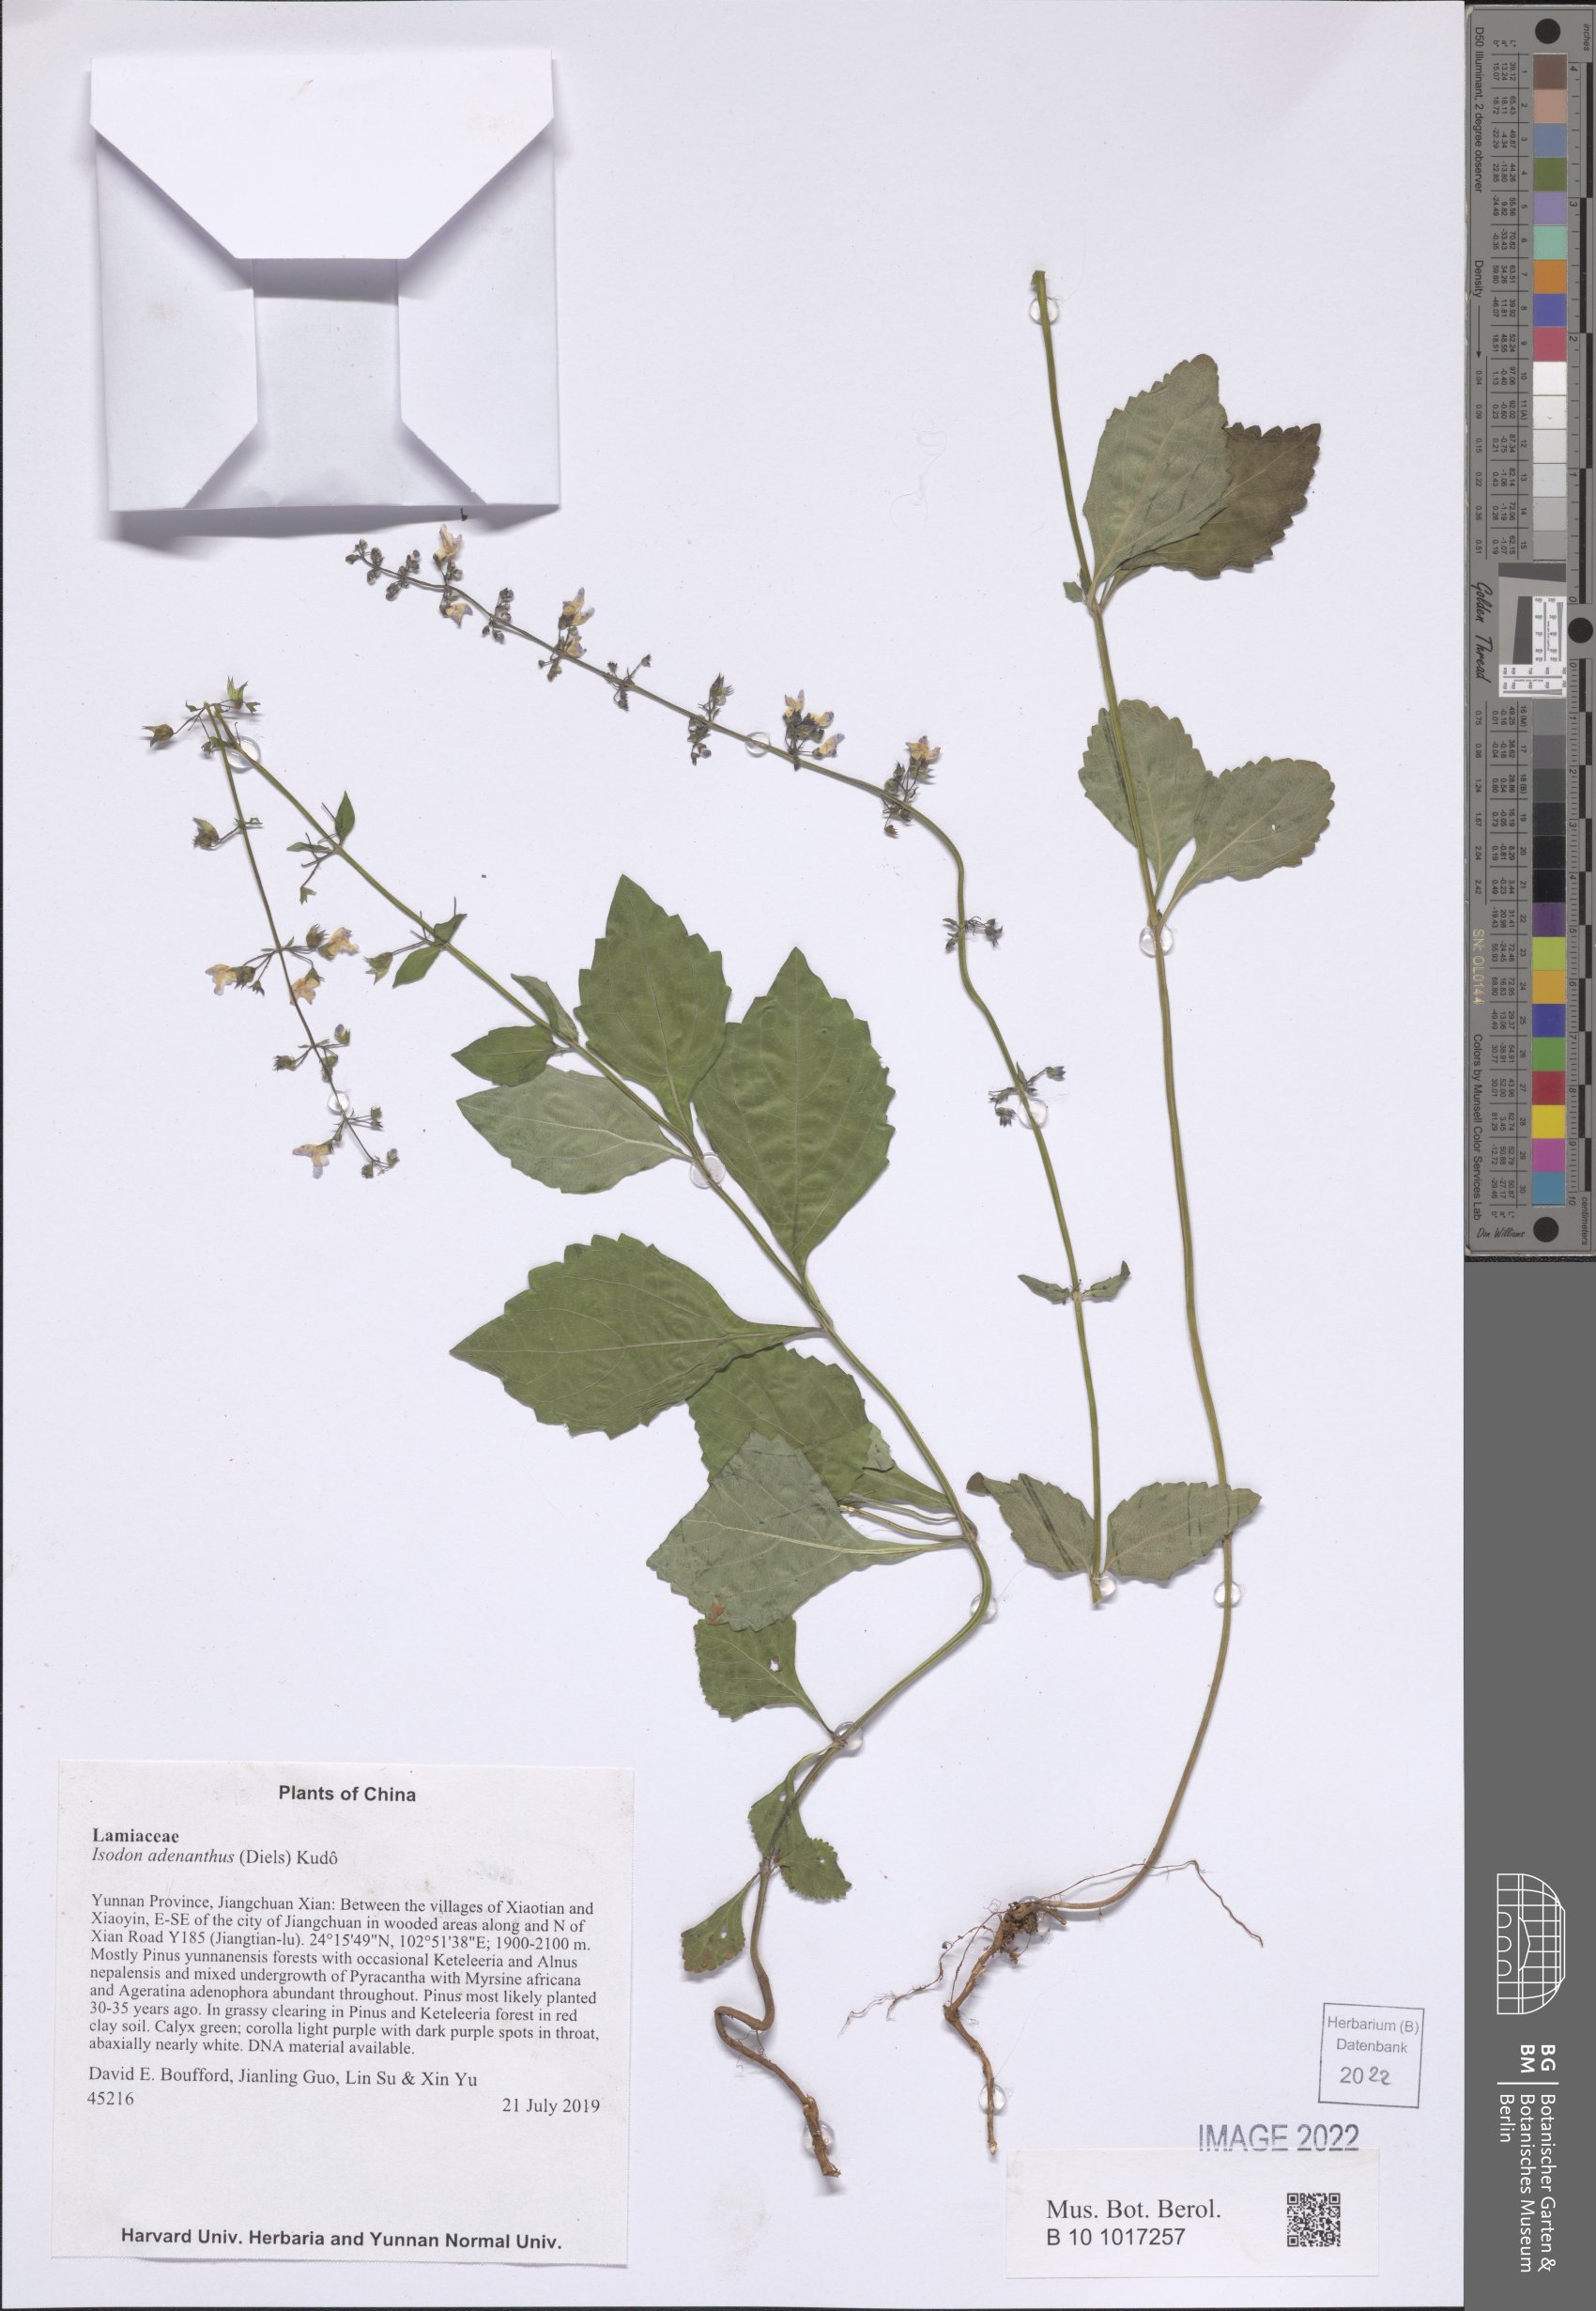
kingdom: Plantae
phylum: Tracheophyta
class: Magnoliopsida
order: Lamiales
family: Lamiaceae
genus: Isodon
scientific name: Isodon adenanthus
